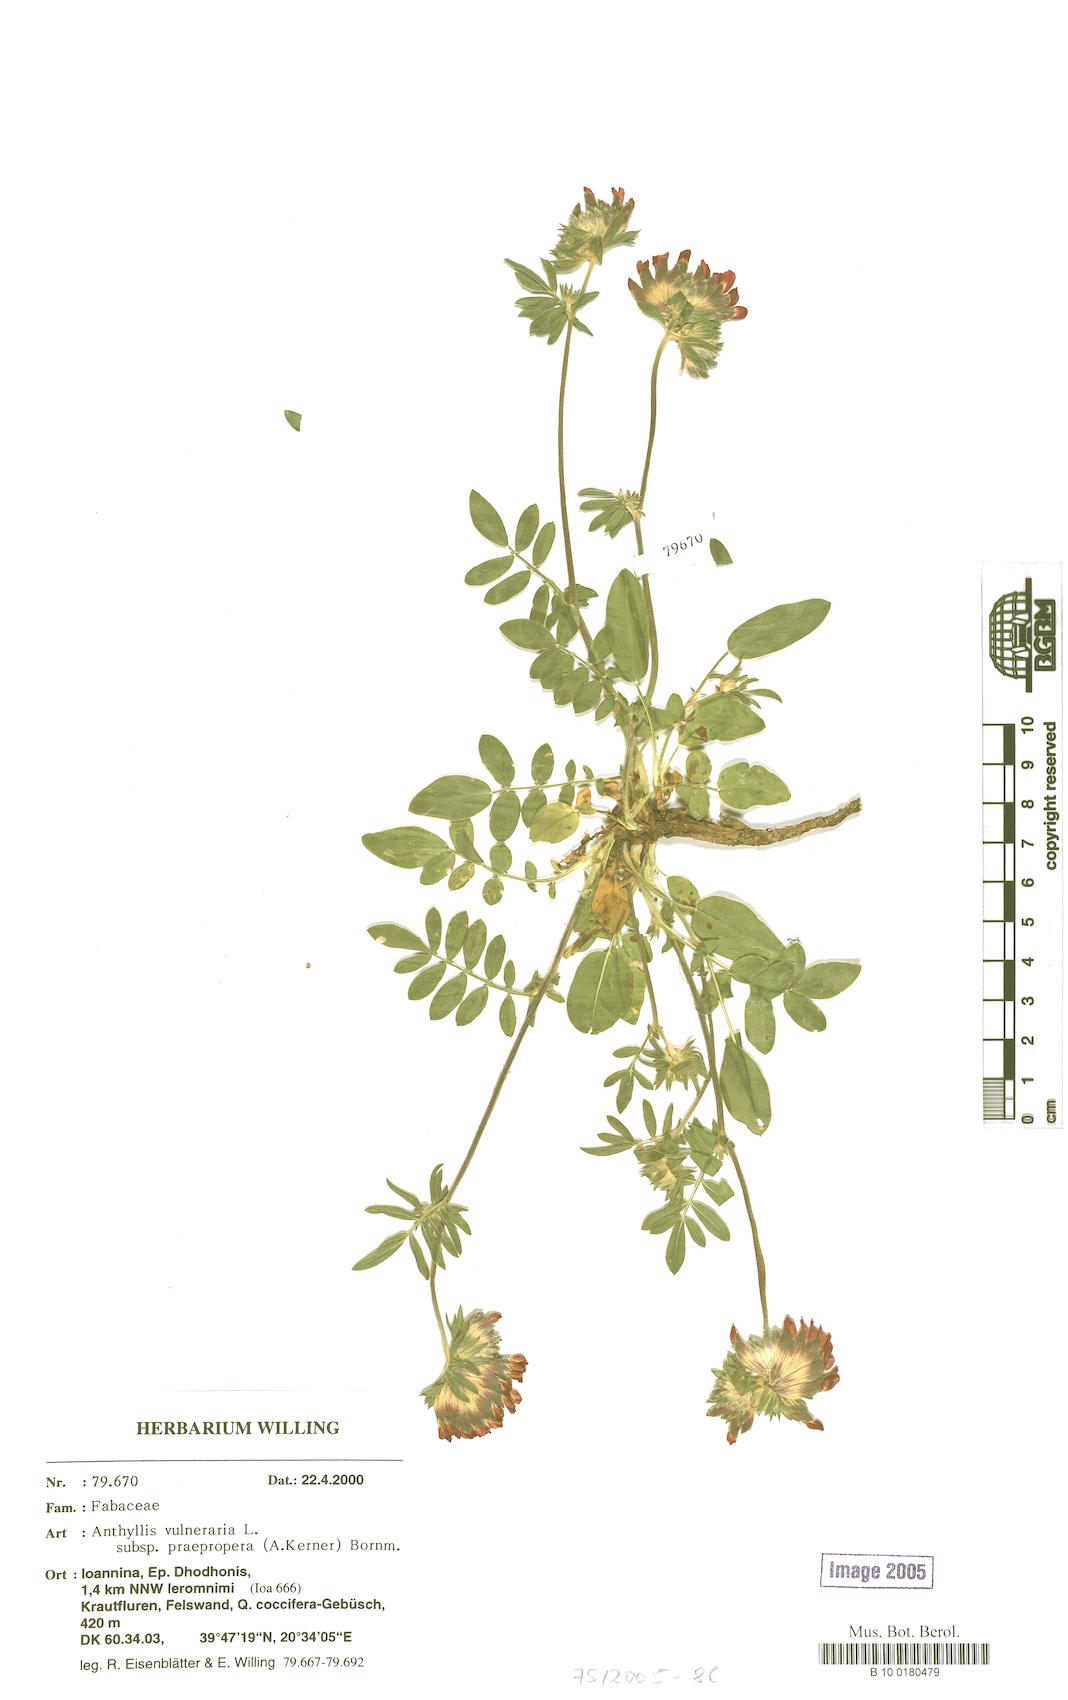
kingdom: Plantae
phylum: Tracheophyta
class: Magnoliopsida
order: Fabales
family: Fabaceae
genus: Anthyllis
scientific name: Anthyllis vulneraria
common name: Kidney vetch
